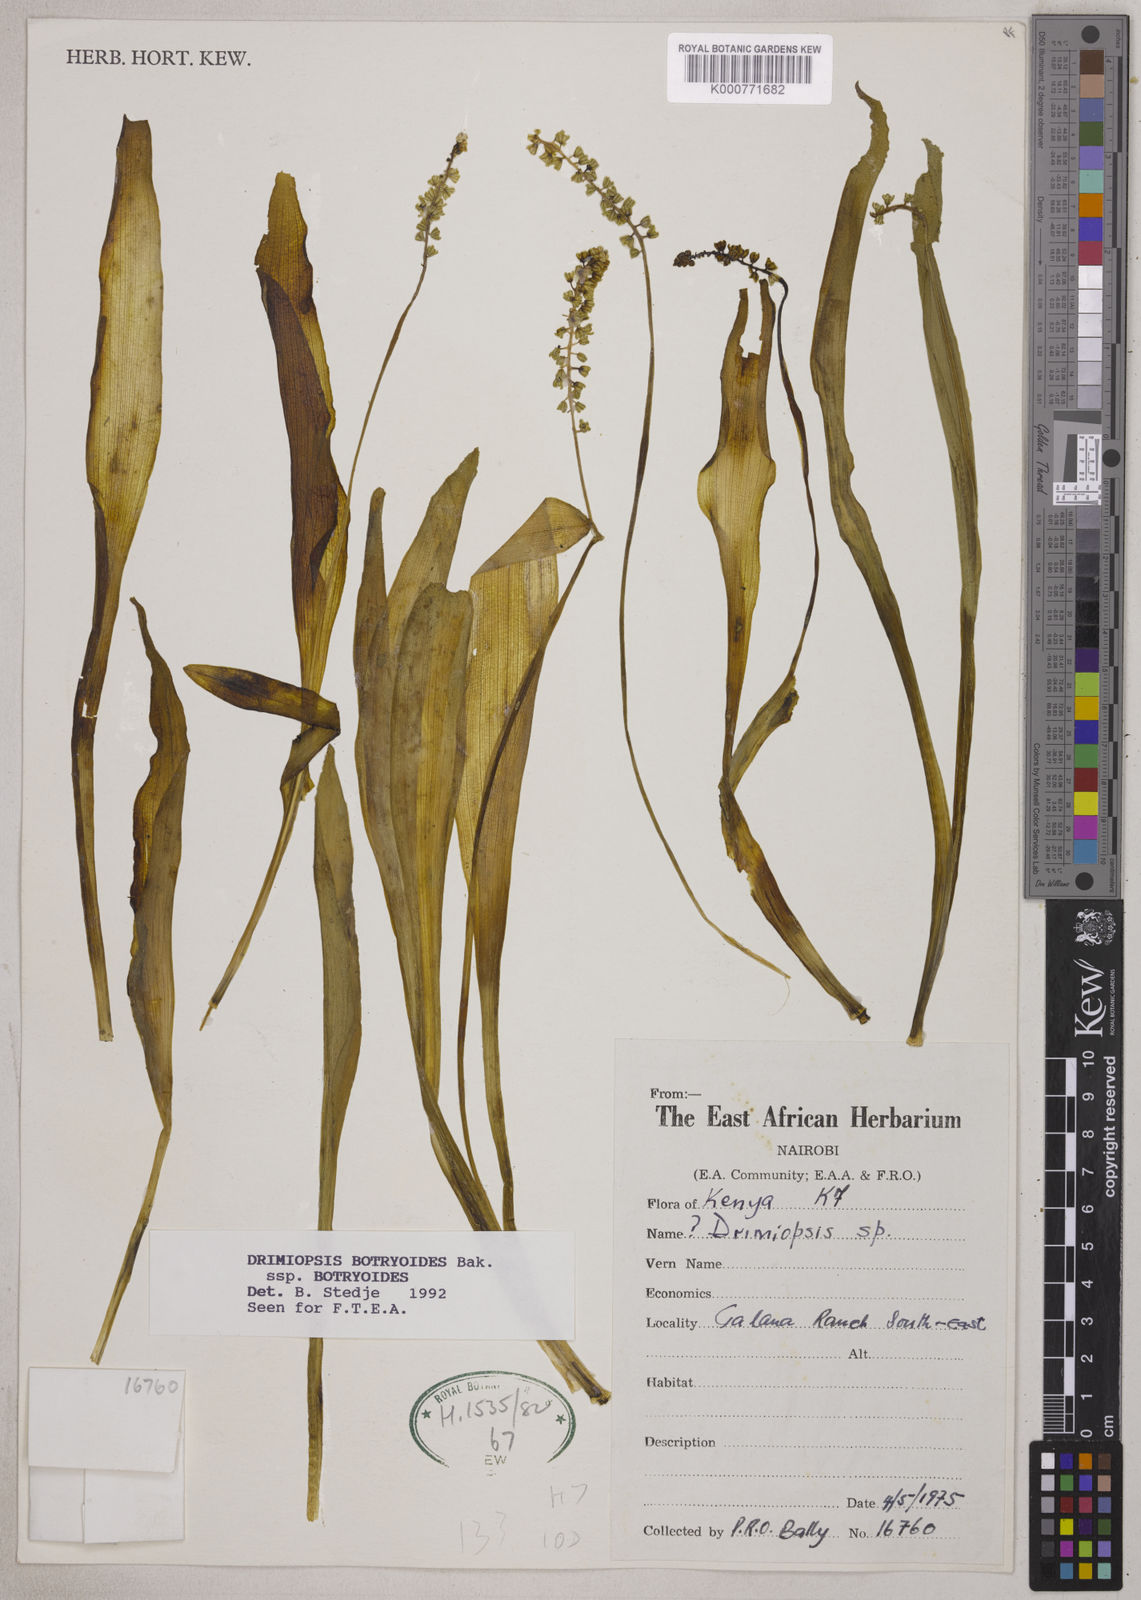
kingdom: Plantae
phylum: Tracheophyta
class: Liliopsida
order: Asparagales
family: Asparagaceae
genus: Drimiopsis
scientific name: Drimiopsis botryoides
